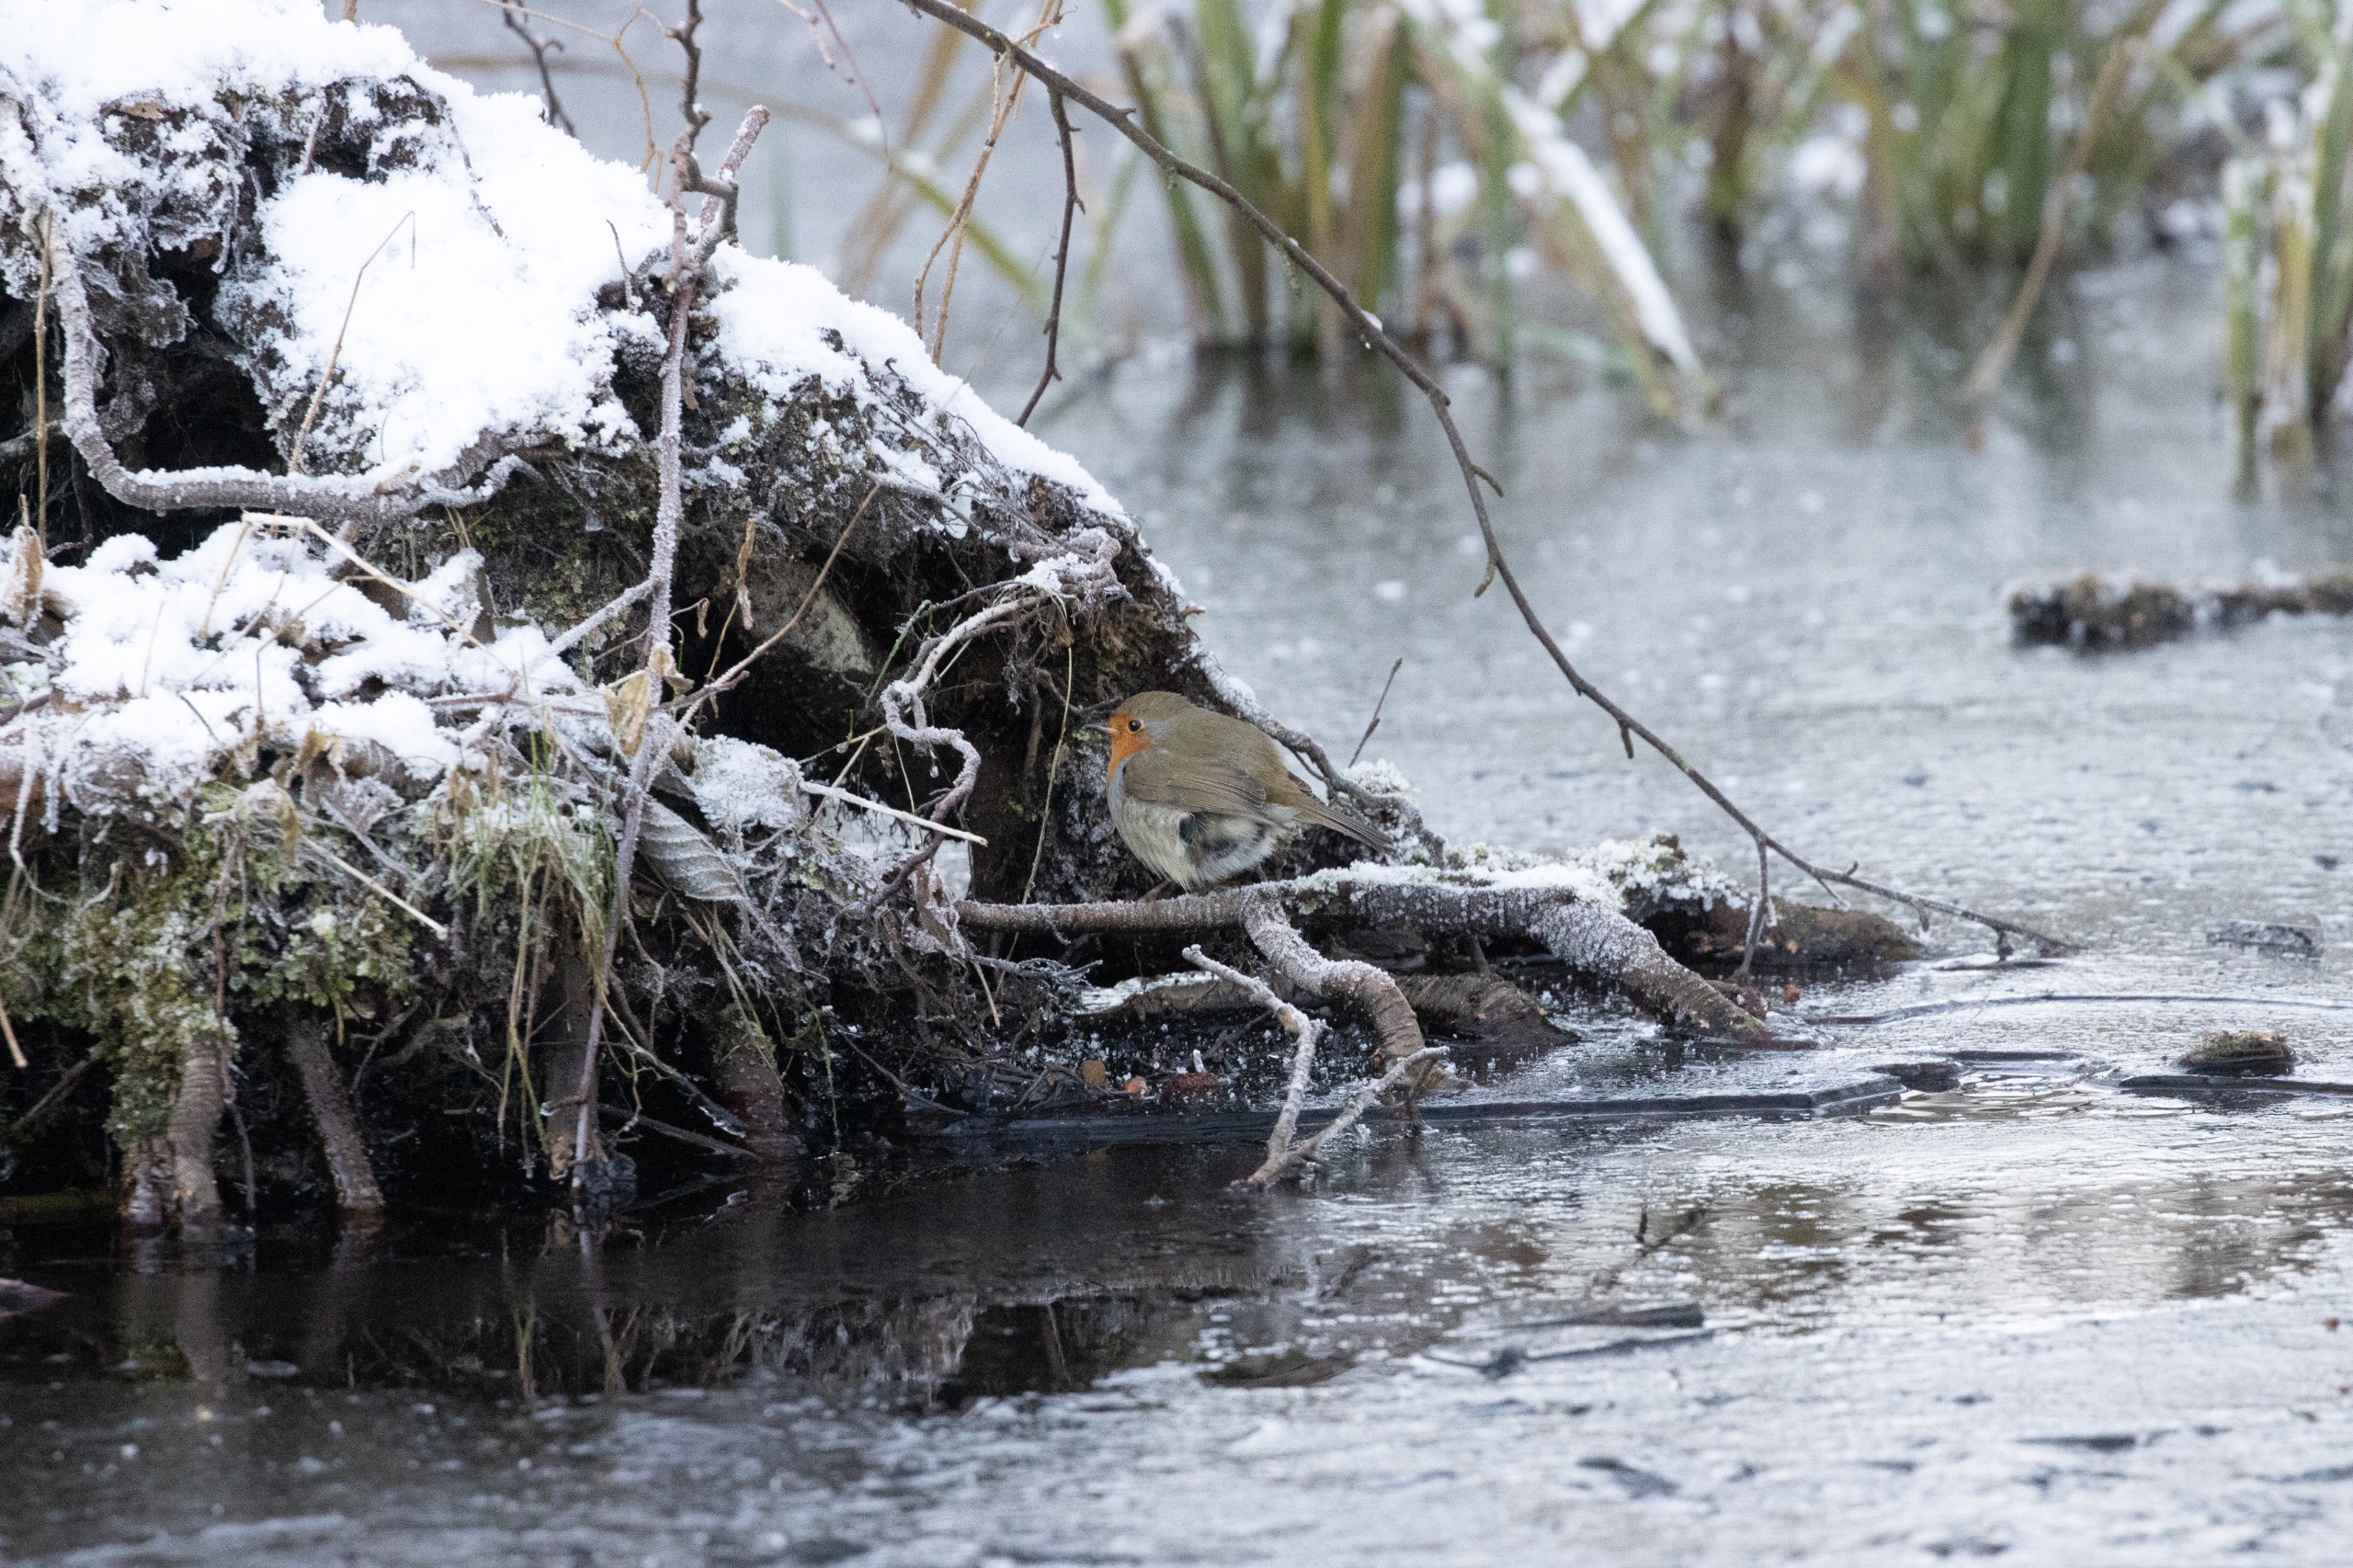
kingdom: Animalia
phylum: Chordata
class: Aves
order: Passeriformes
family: Muscicapidae
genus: Erithacus
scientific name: Erithacus rubecula
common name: Rødhals/rødkælk
